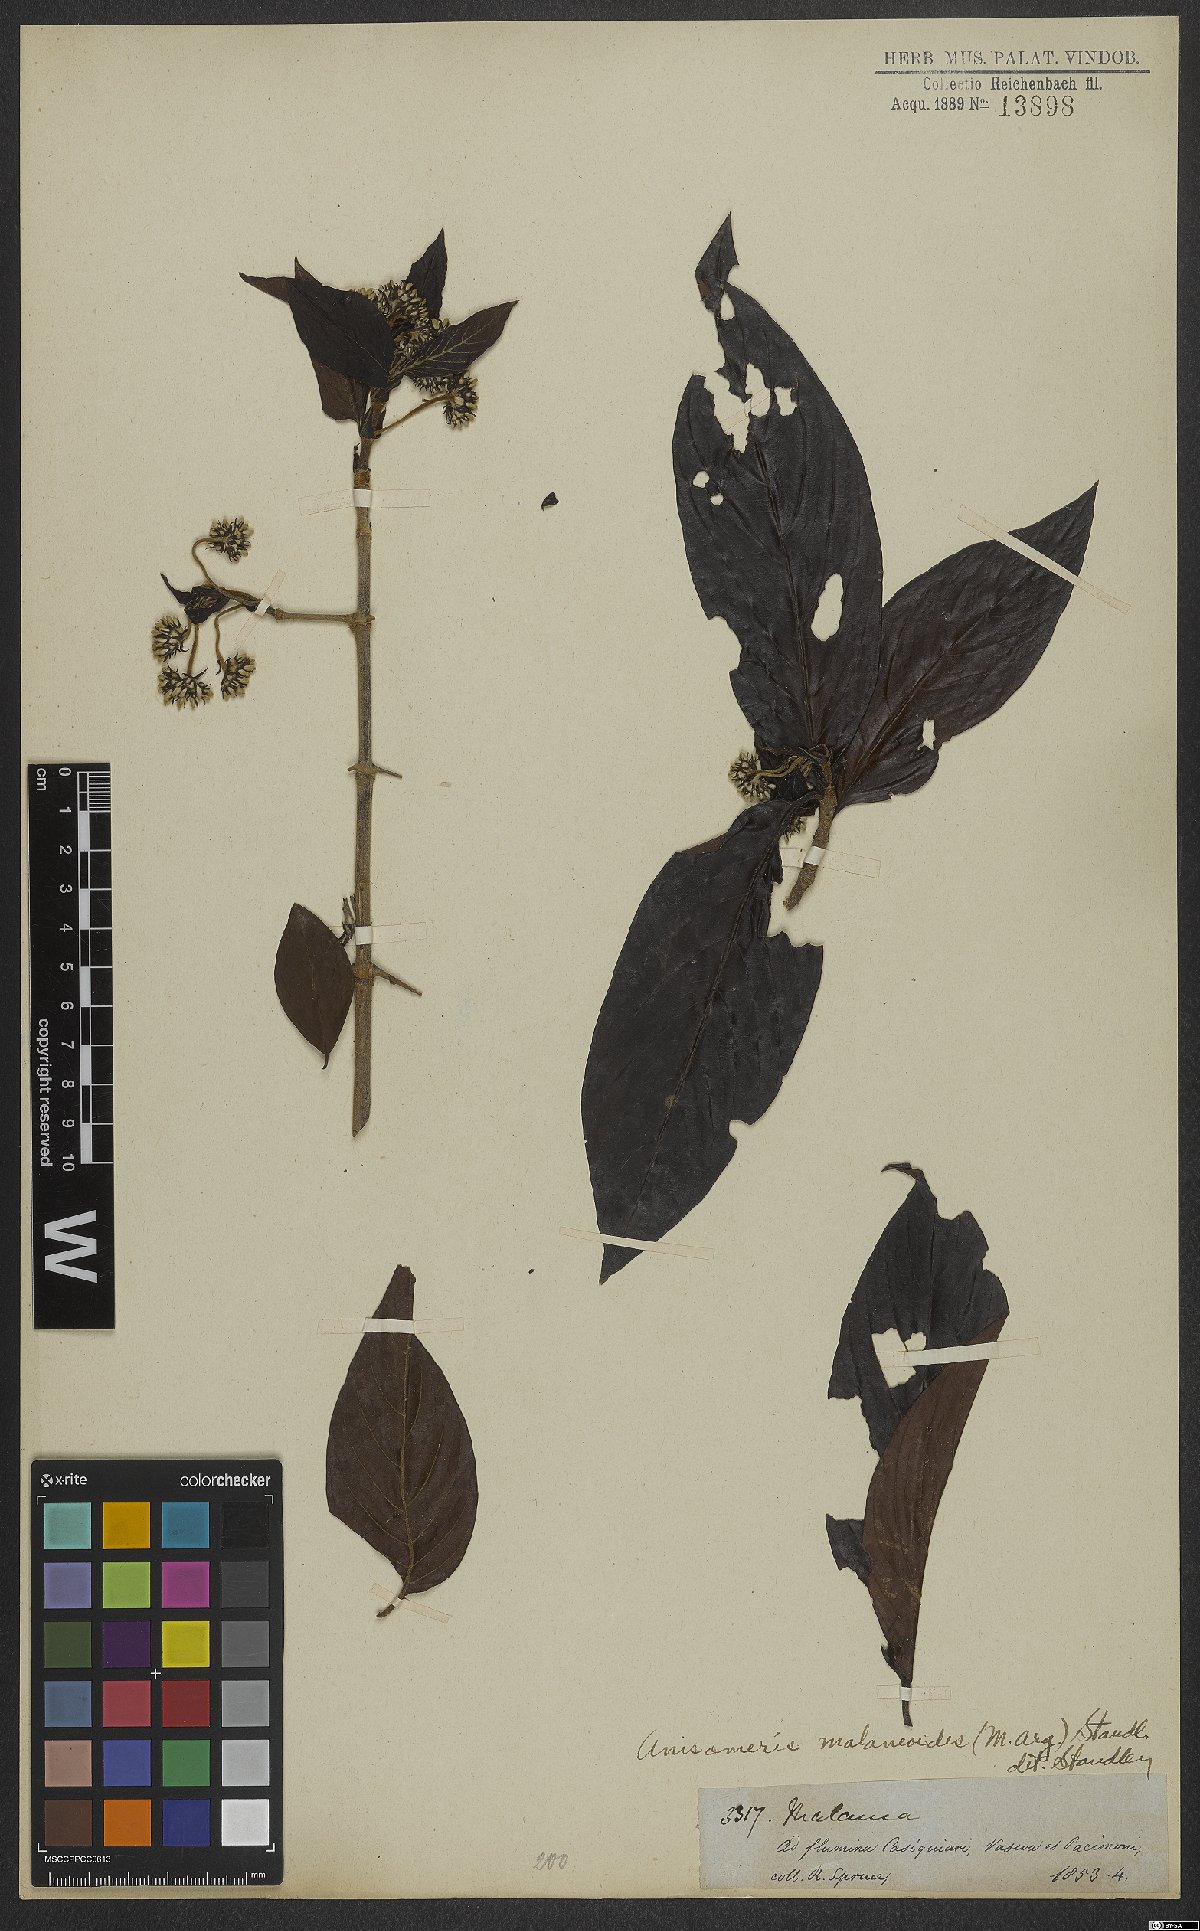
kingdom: Plantae
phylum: Tracheophyta
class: Magnoliopsida
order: Gentianales
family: Rubiaceae
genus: Chomelia
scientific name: Chomelia malaneoides
